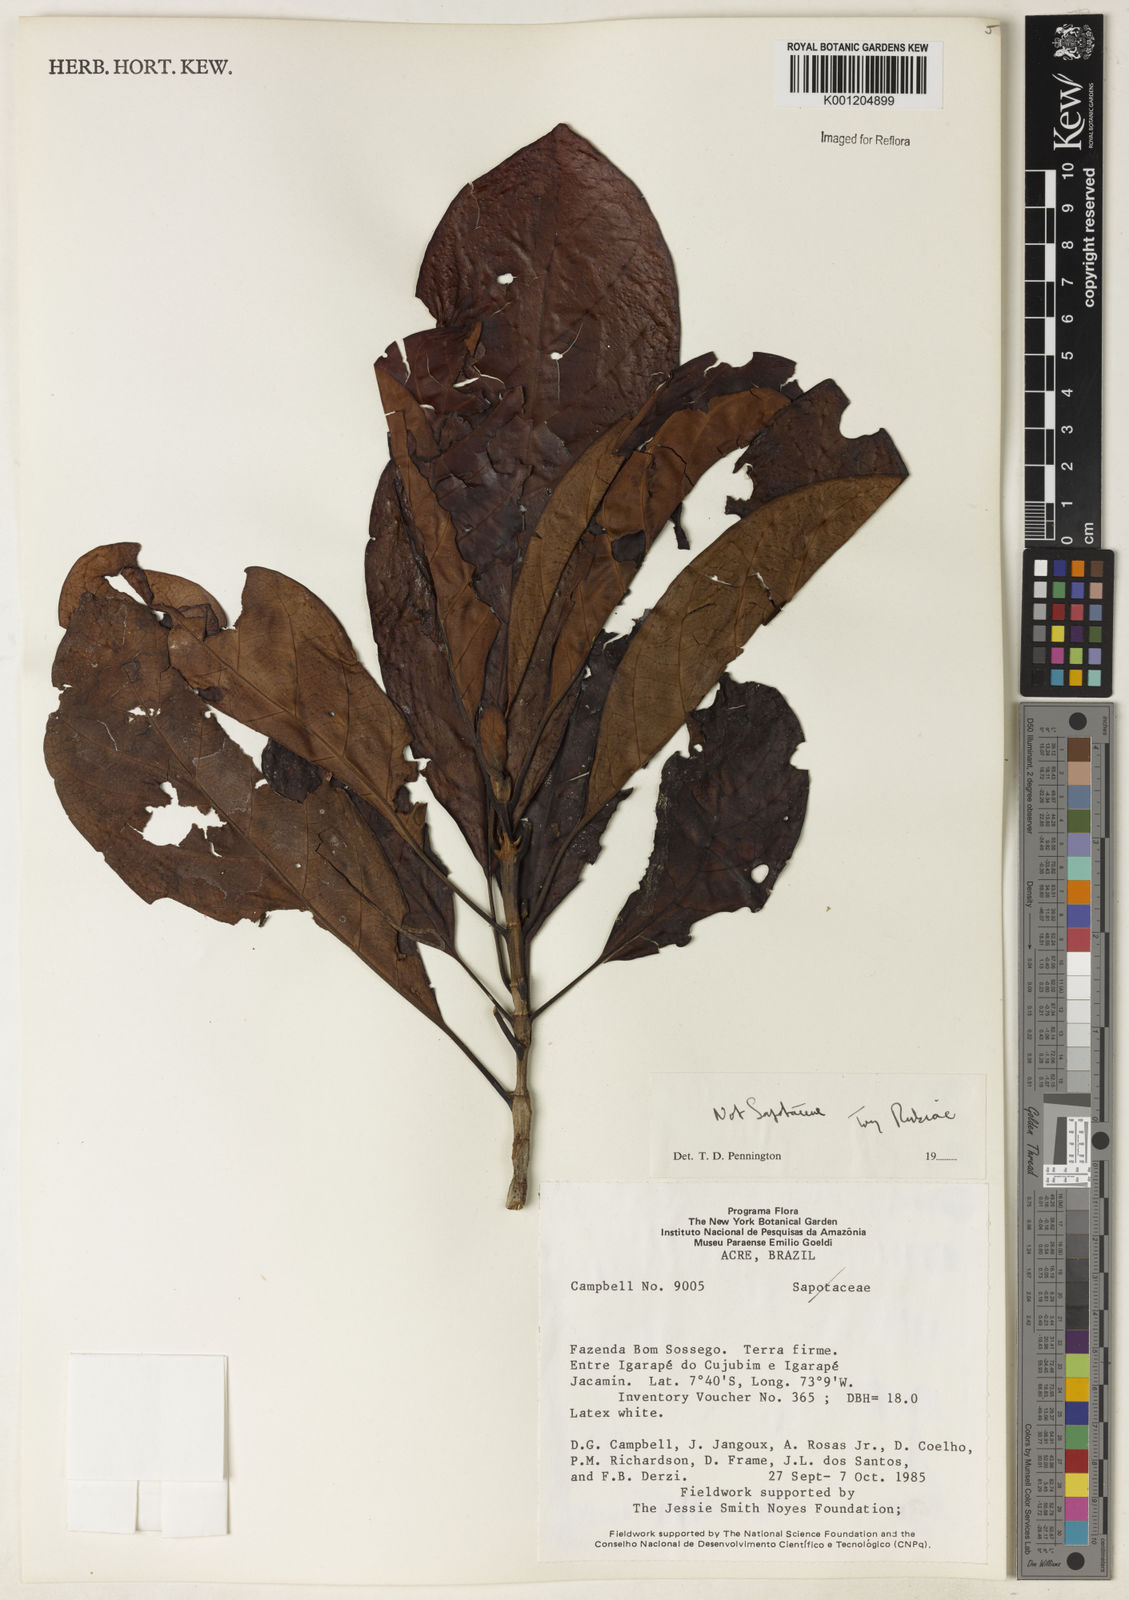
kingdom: Plantae
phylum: Tracheophyta
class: Magnoliopsida
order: Gentianales
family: Rubiaceae
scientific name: Rubiaceae
